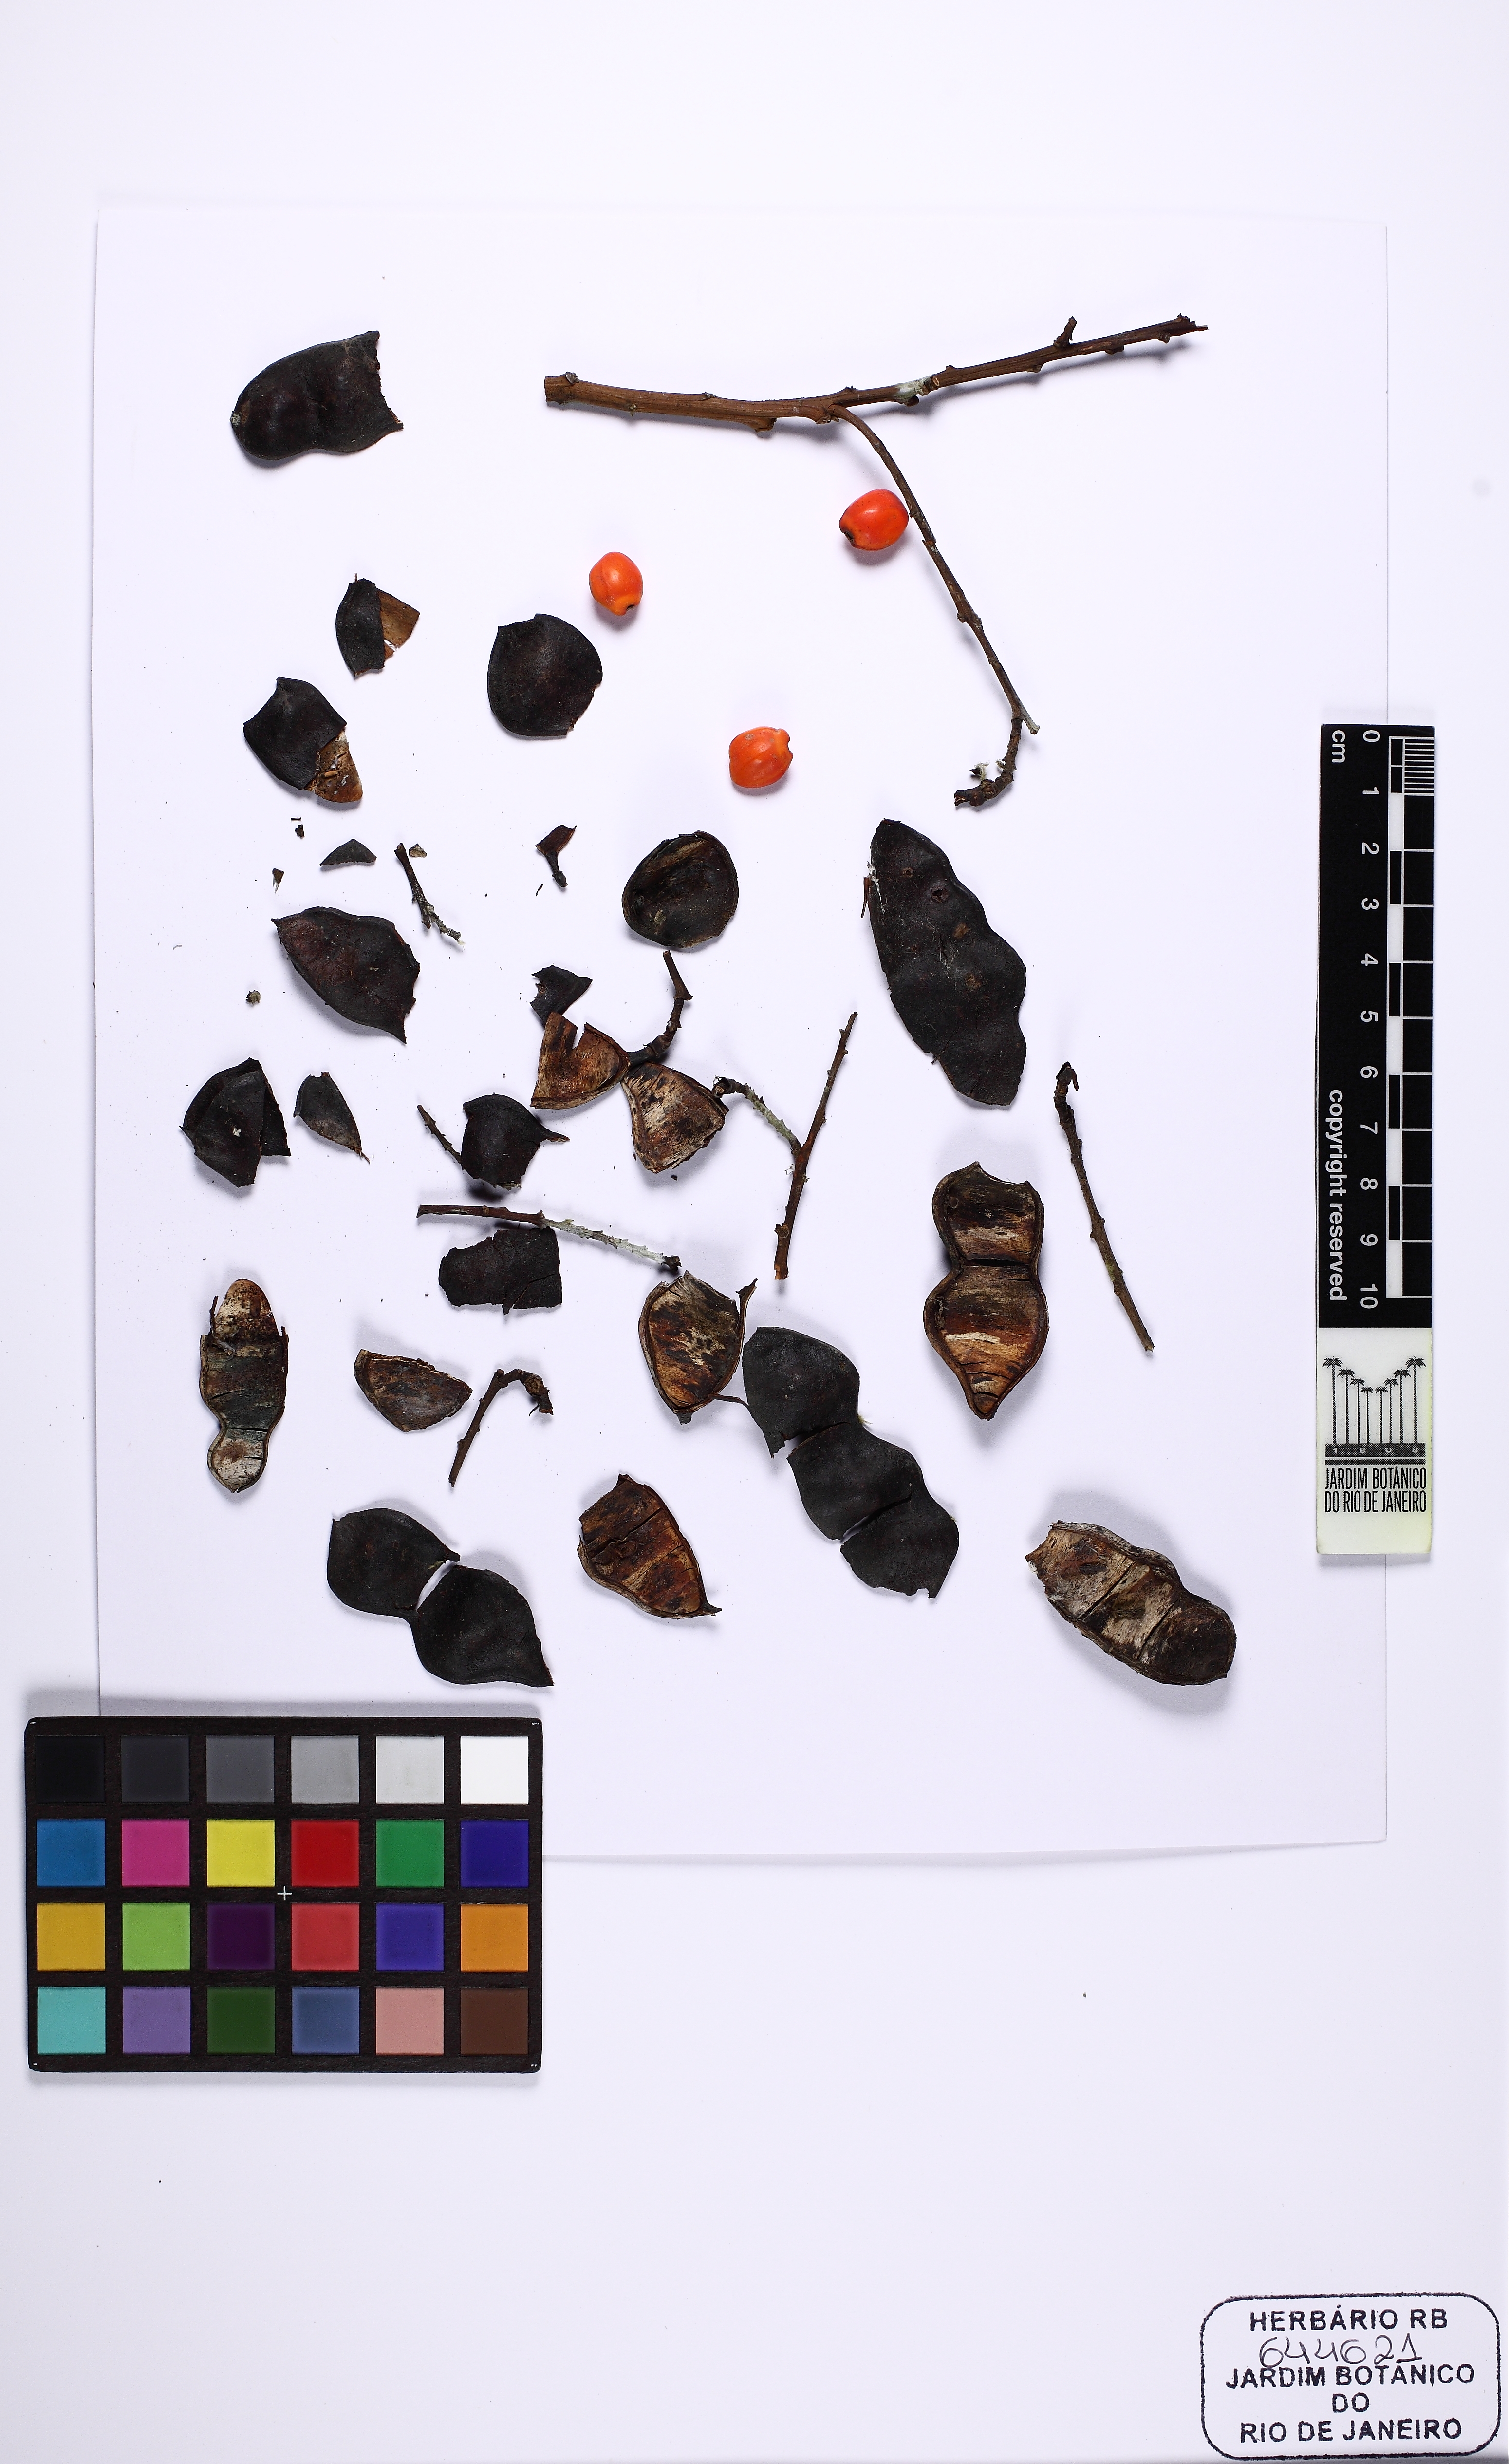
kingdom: Plantae
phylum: Tracheophyta
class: Magnoliopsida
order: Fabales
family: Fabaceae
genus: Ormosia
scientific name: Ormosia macrocalyx
